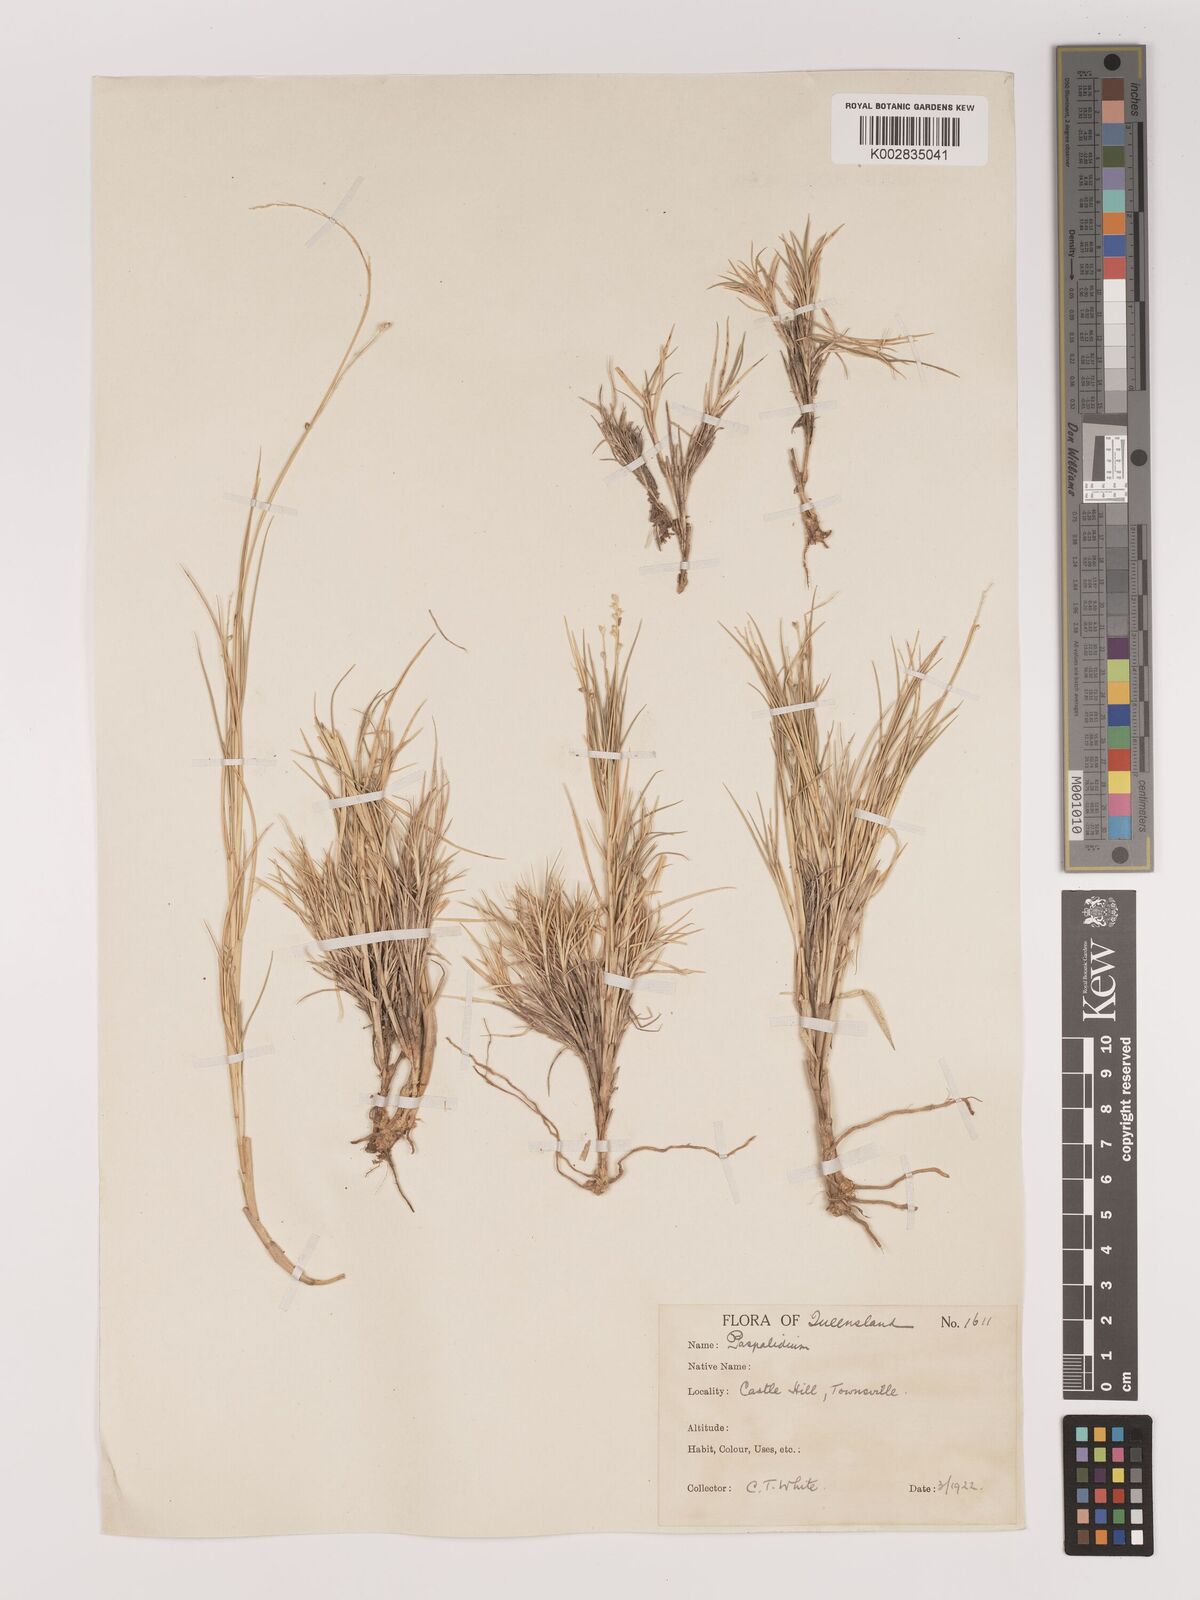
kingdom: Plantae
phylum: Tracheophyta
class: Liliopsida
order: Poales
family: Poaceae
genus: Setaria
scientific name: Setaria
